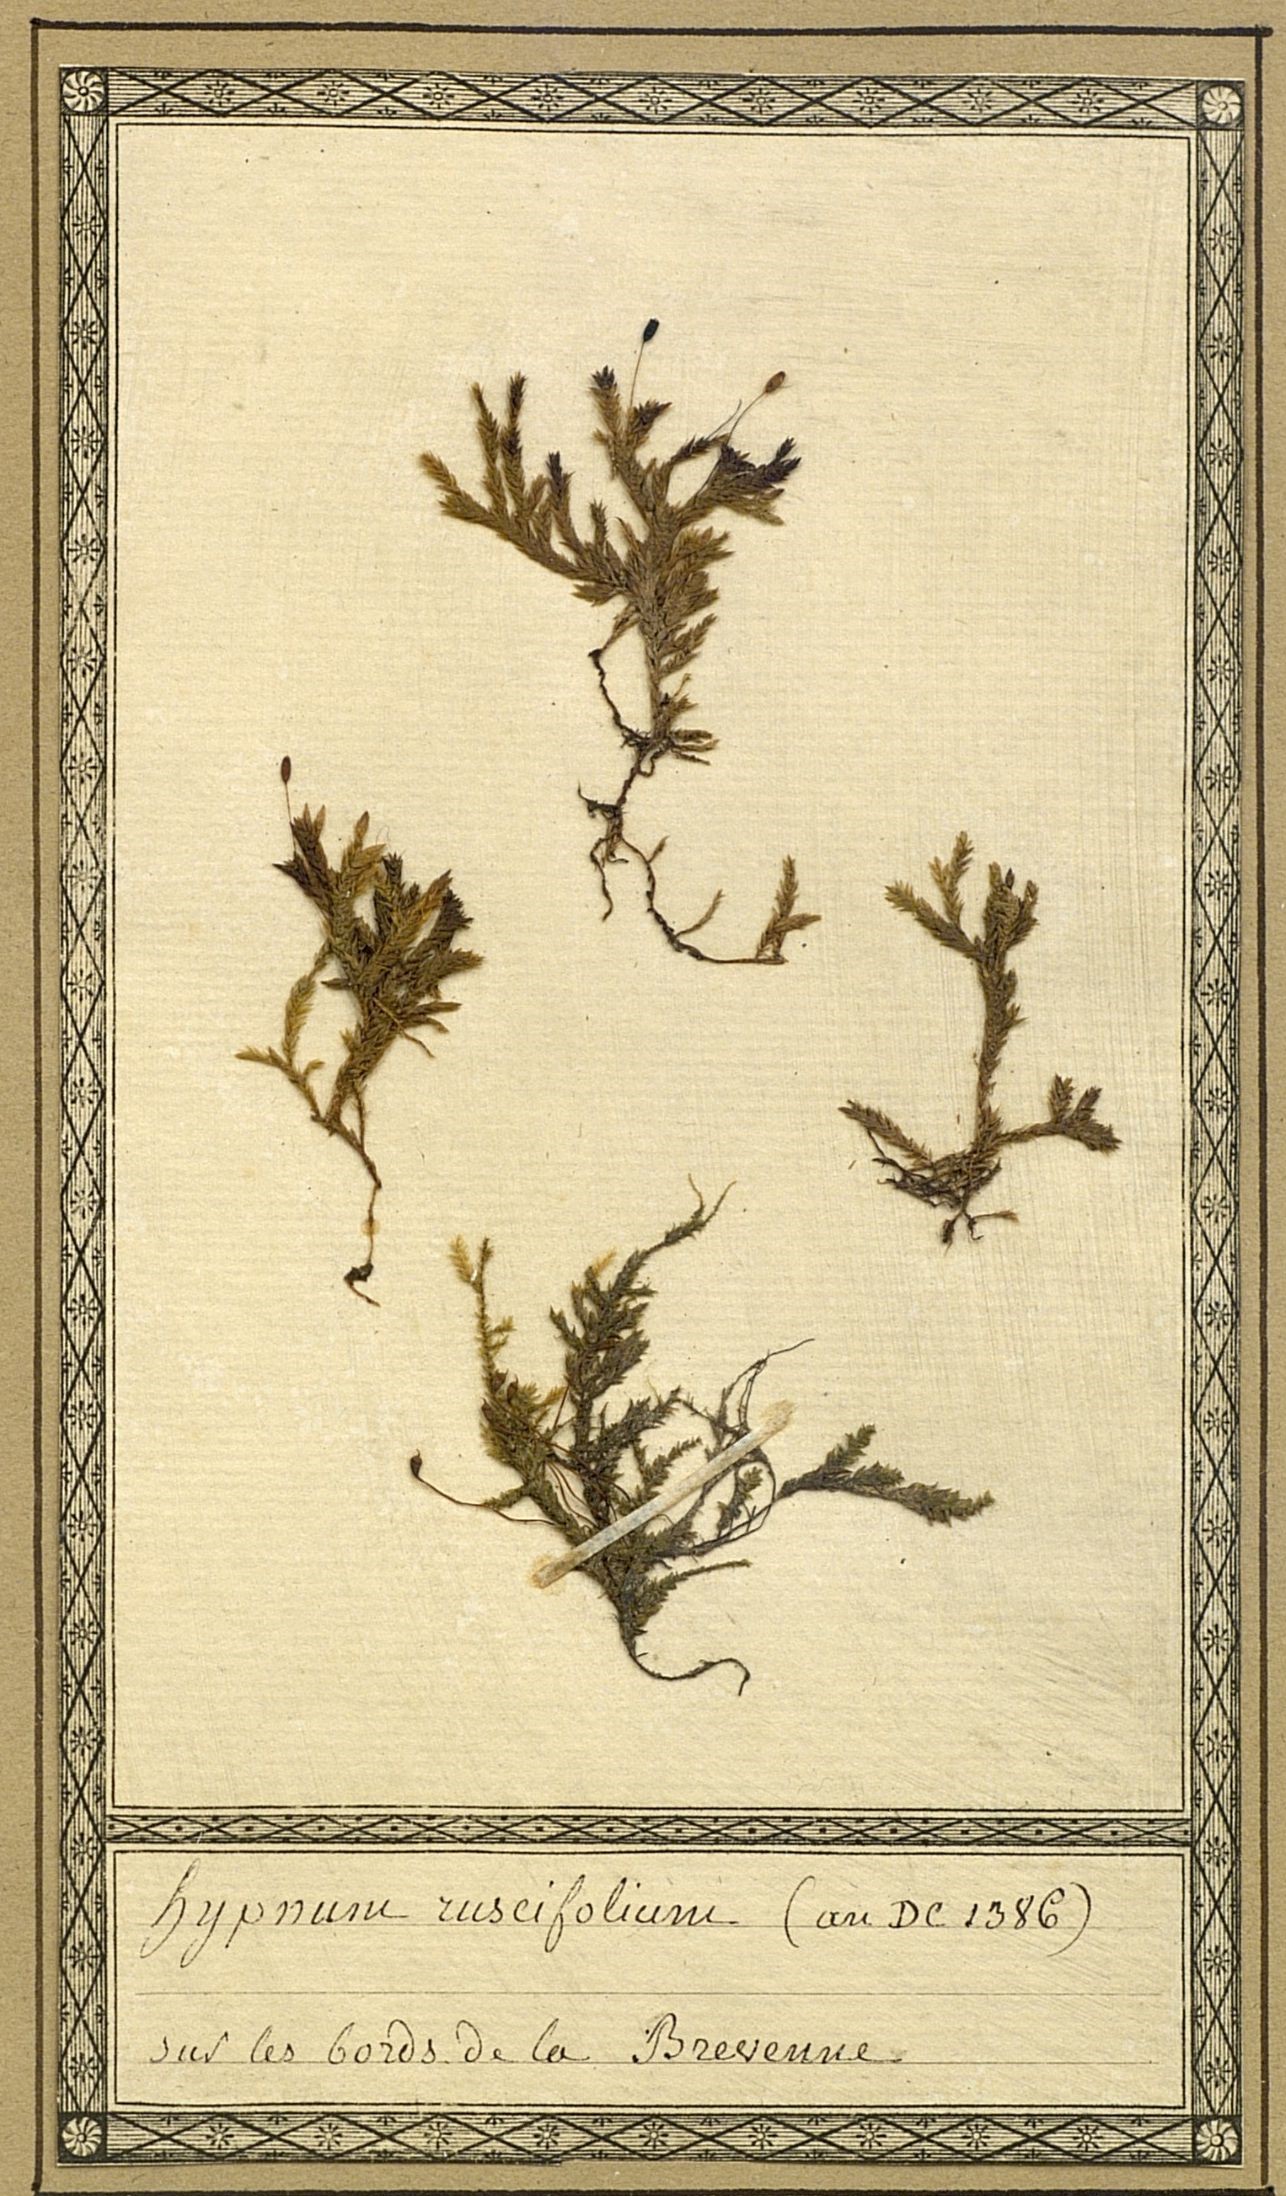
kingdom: Plantae
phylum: Bryophyta
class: Bryopsida
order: Hypnales
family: Brachytheciaceae
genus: Rhynchostegium
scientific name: Rhynchostegium riparioides
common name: Platyhypnidium moss
